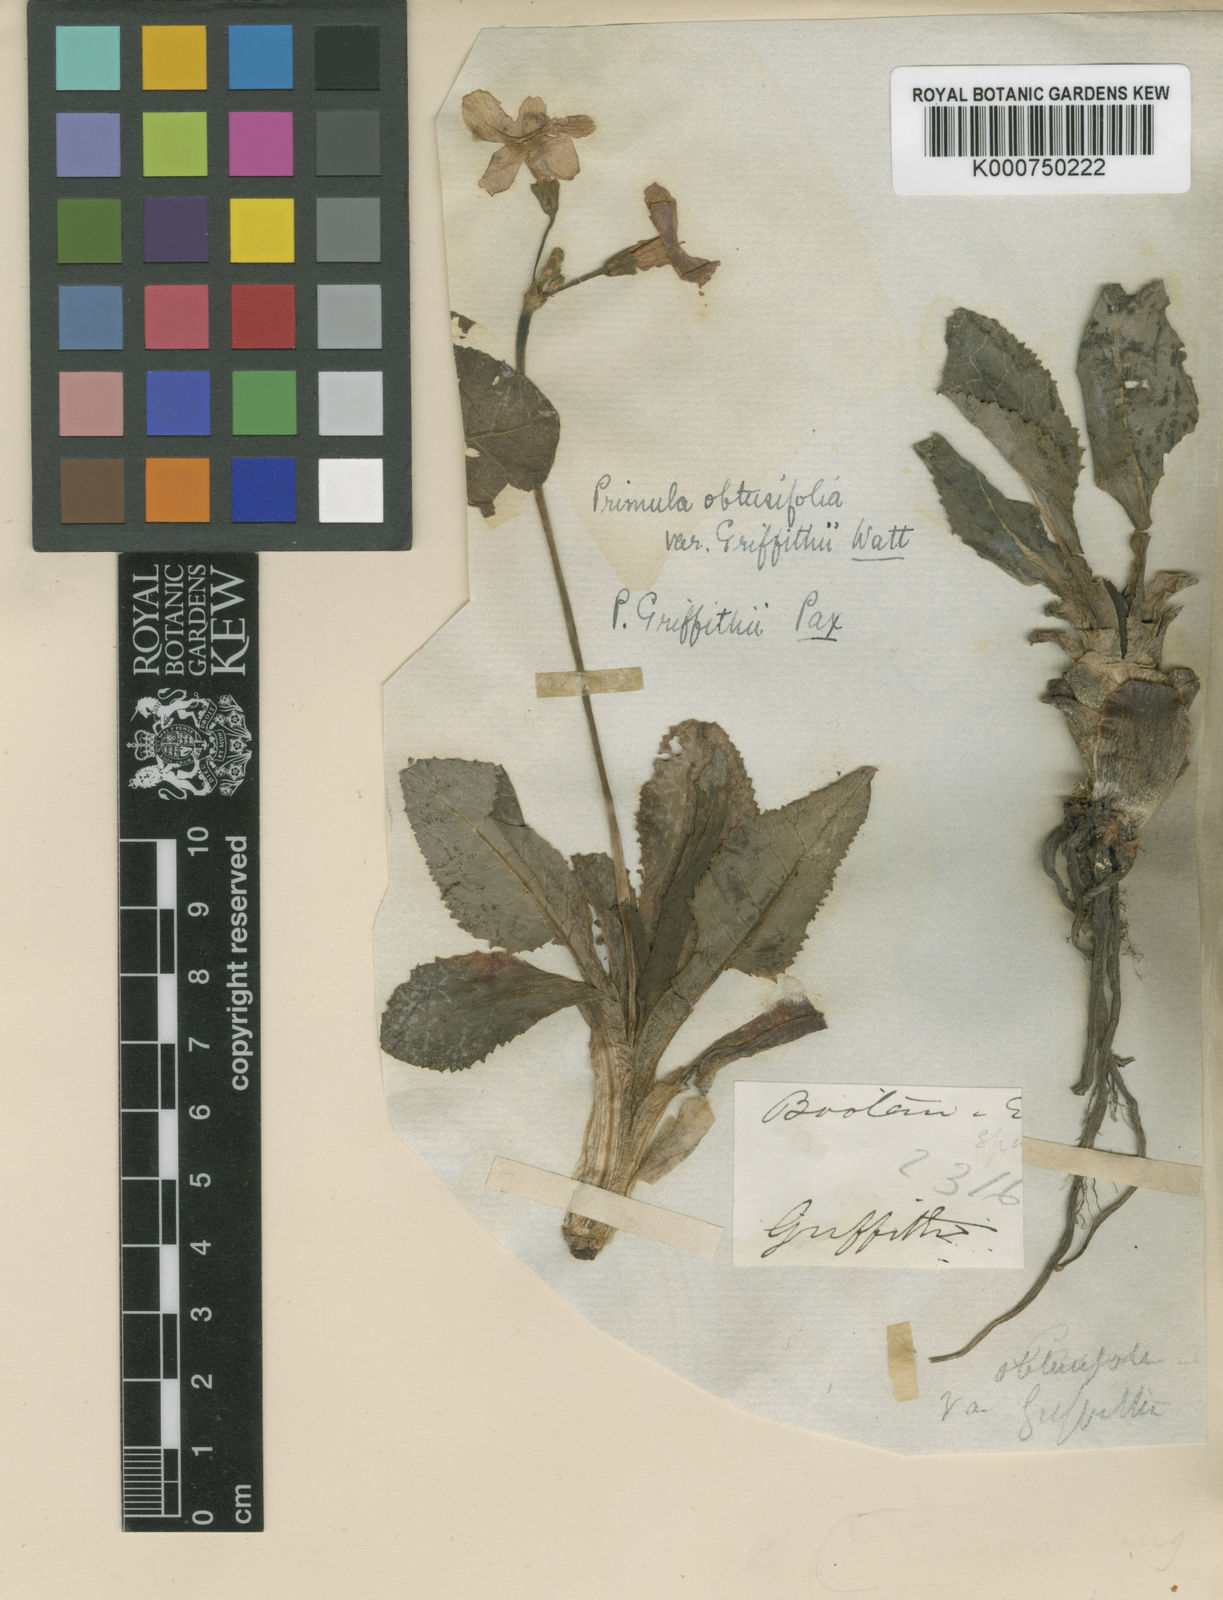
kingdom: Plantae
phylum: Tracheophyta
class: Magnoliopsida
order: Ericales
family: Primulaceae
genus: Primula
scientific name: Primula griffithii
